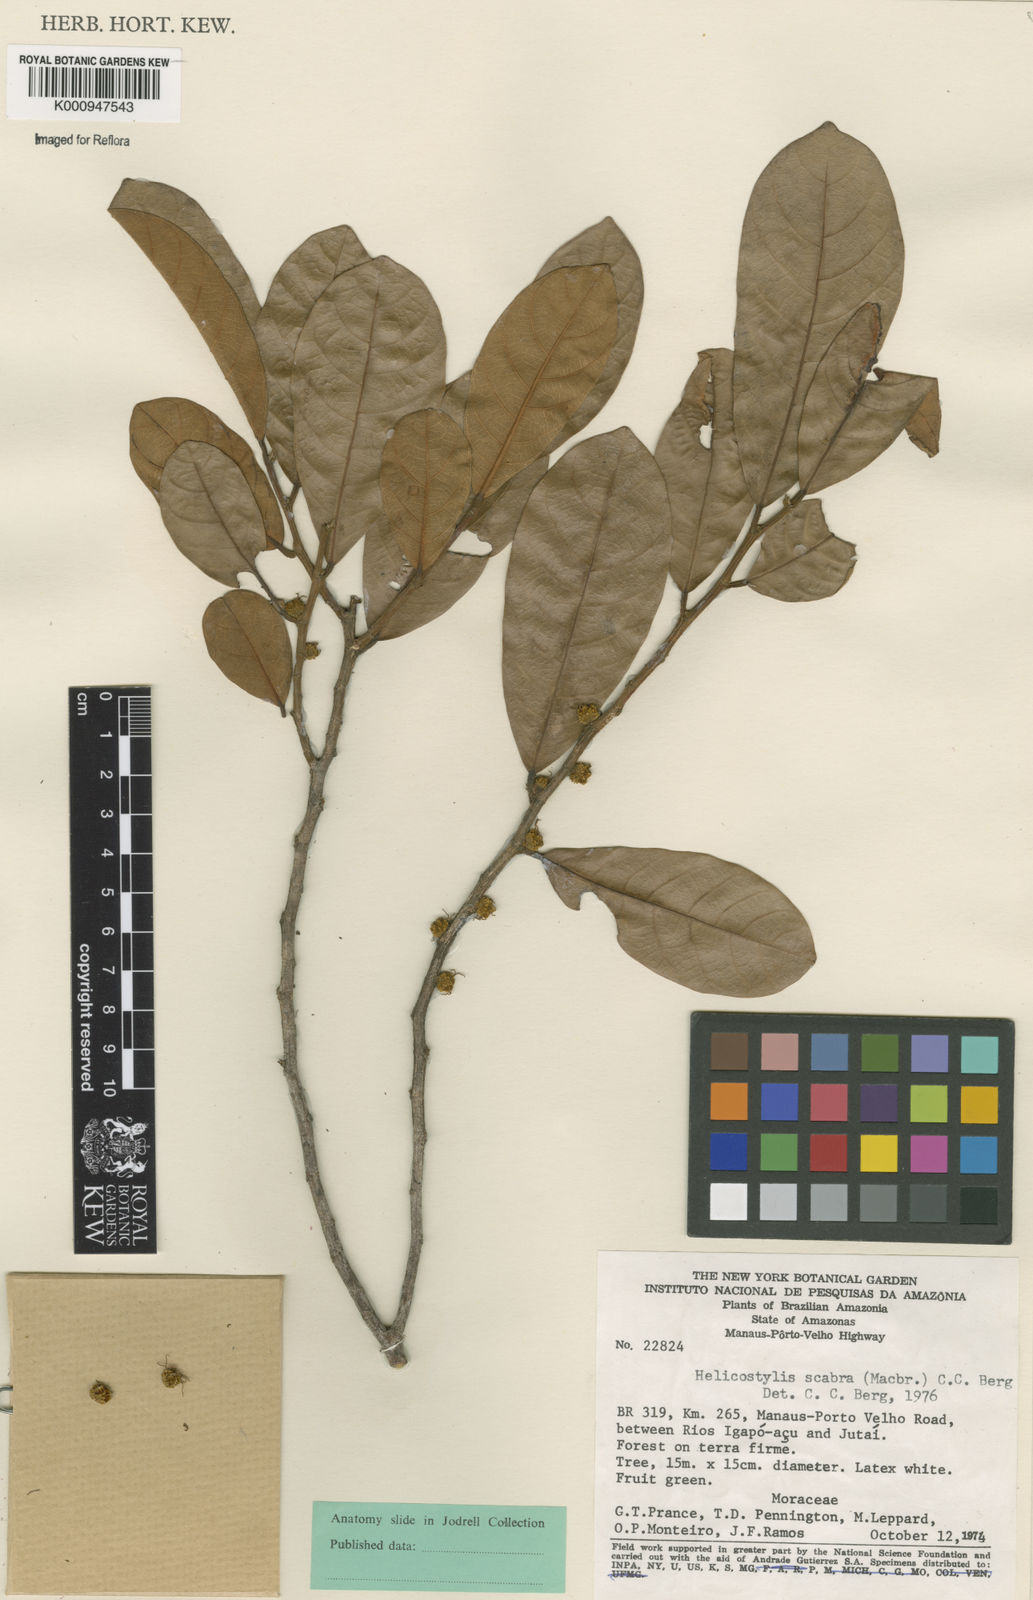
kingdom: Plantae
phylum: Tracheophyta
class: Magnoliopsida
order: Rosales
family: Moraceae
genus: Helicostylis
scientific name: Helicostylis scabra
